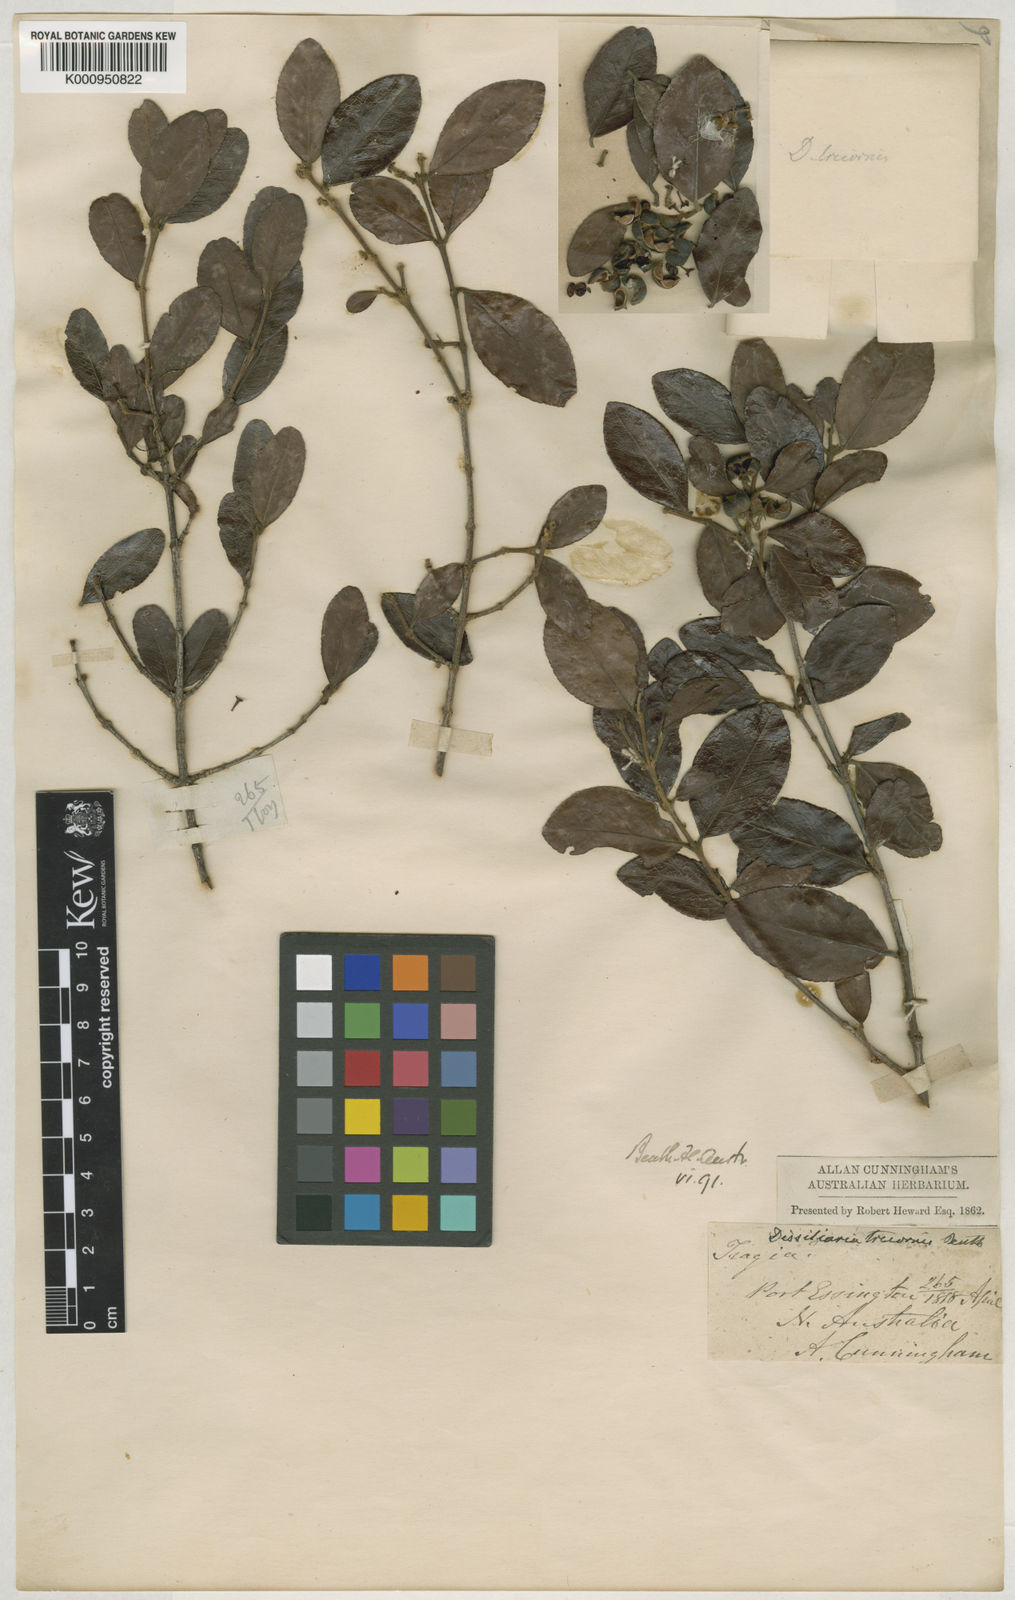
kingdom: Plantae
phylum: Tracheophyta
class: Magnoliopsida
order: Malpighiales
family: Picrodendraceae
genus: Choriceras
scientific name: Choriceras tricorne
